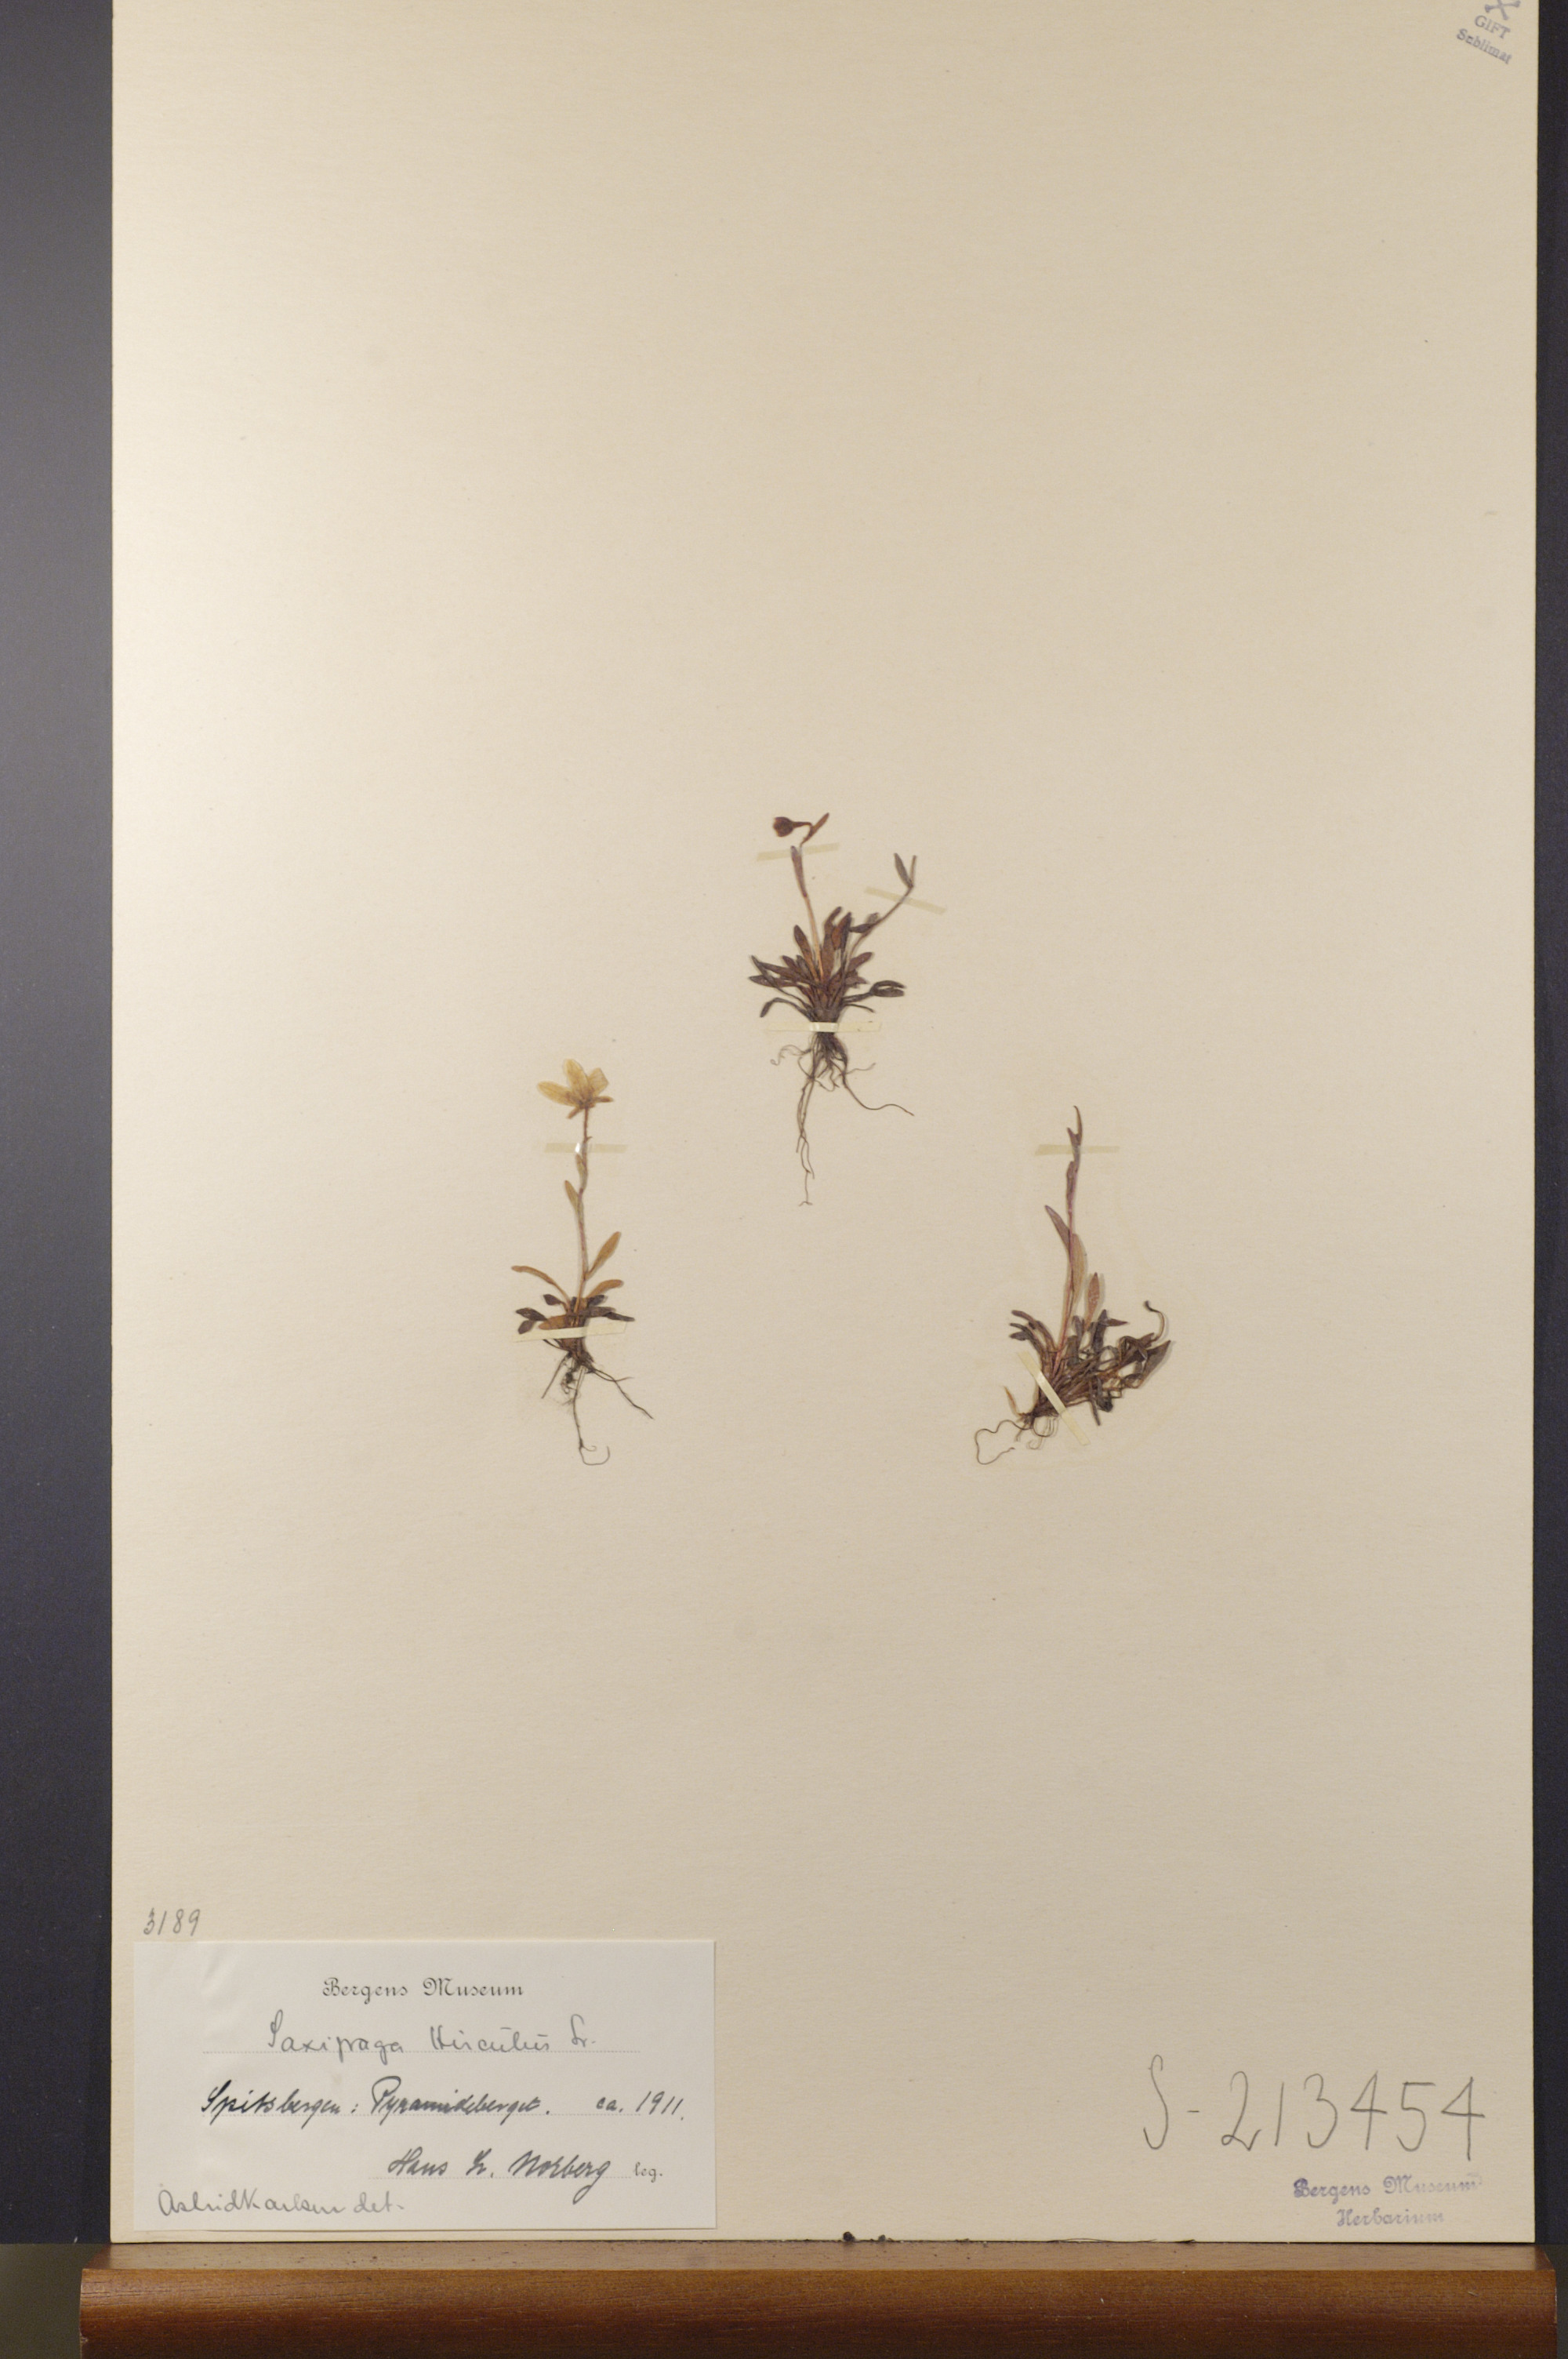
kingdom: Plantae
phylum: Tracheophyta
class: Magnoliopsida
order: Saxifragales
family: Saxifragaceae
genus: Saxifraga
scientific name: Saxifraga hirculus
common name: Yellow marsh saxifrage
